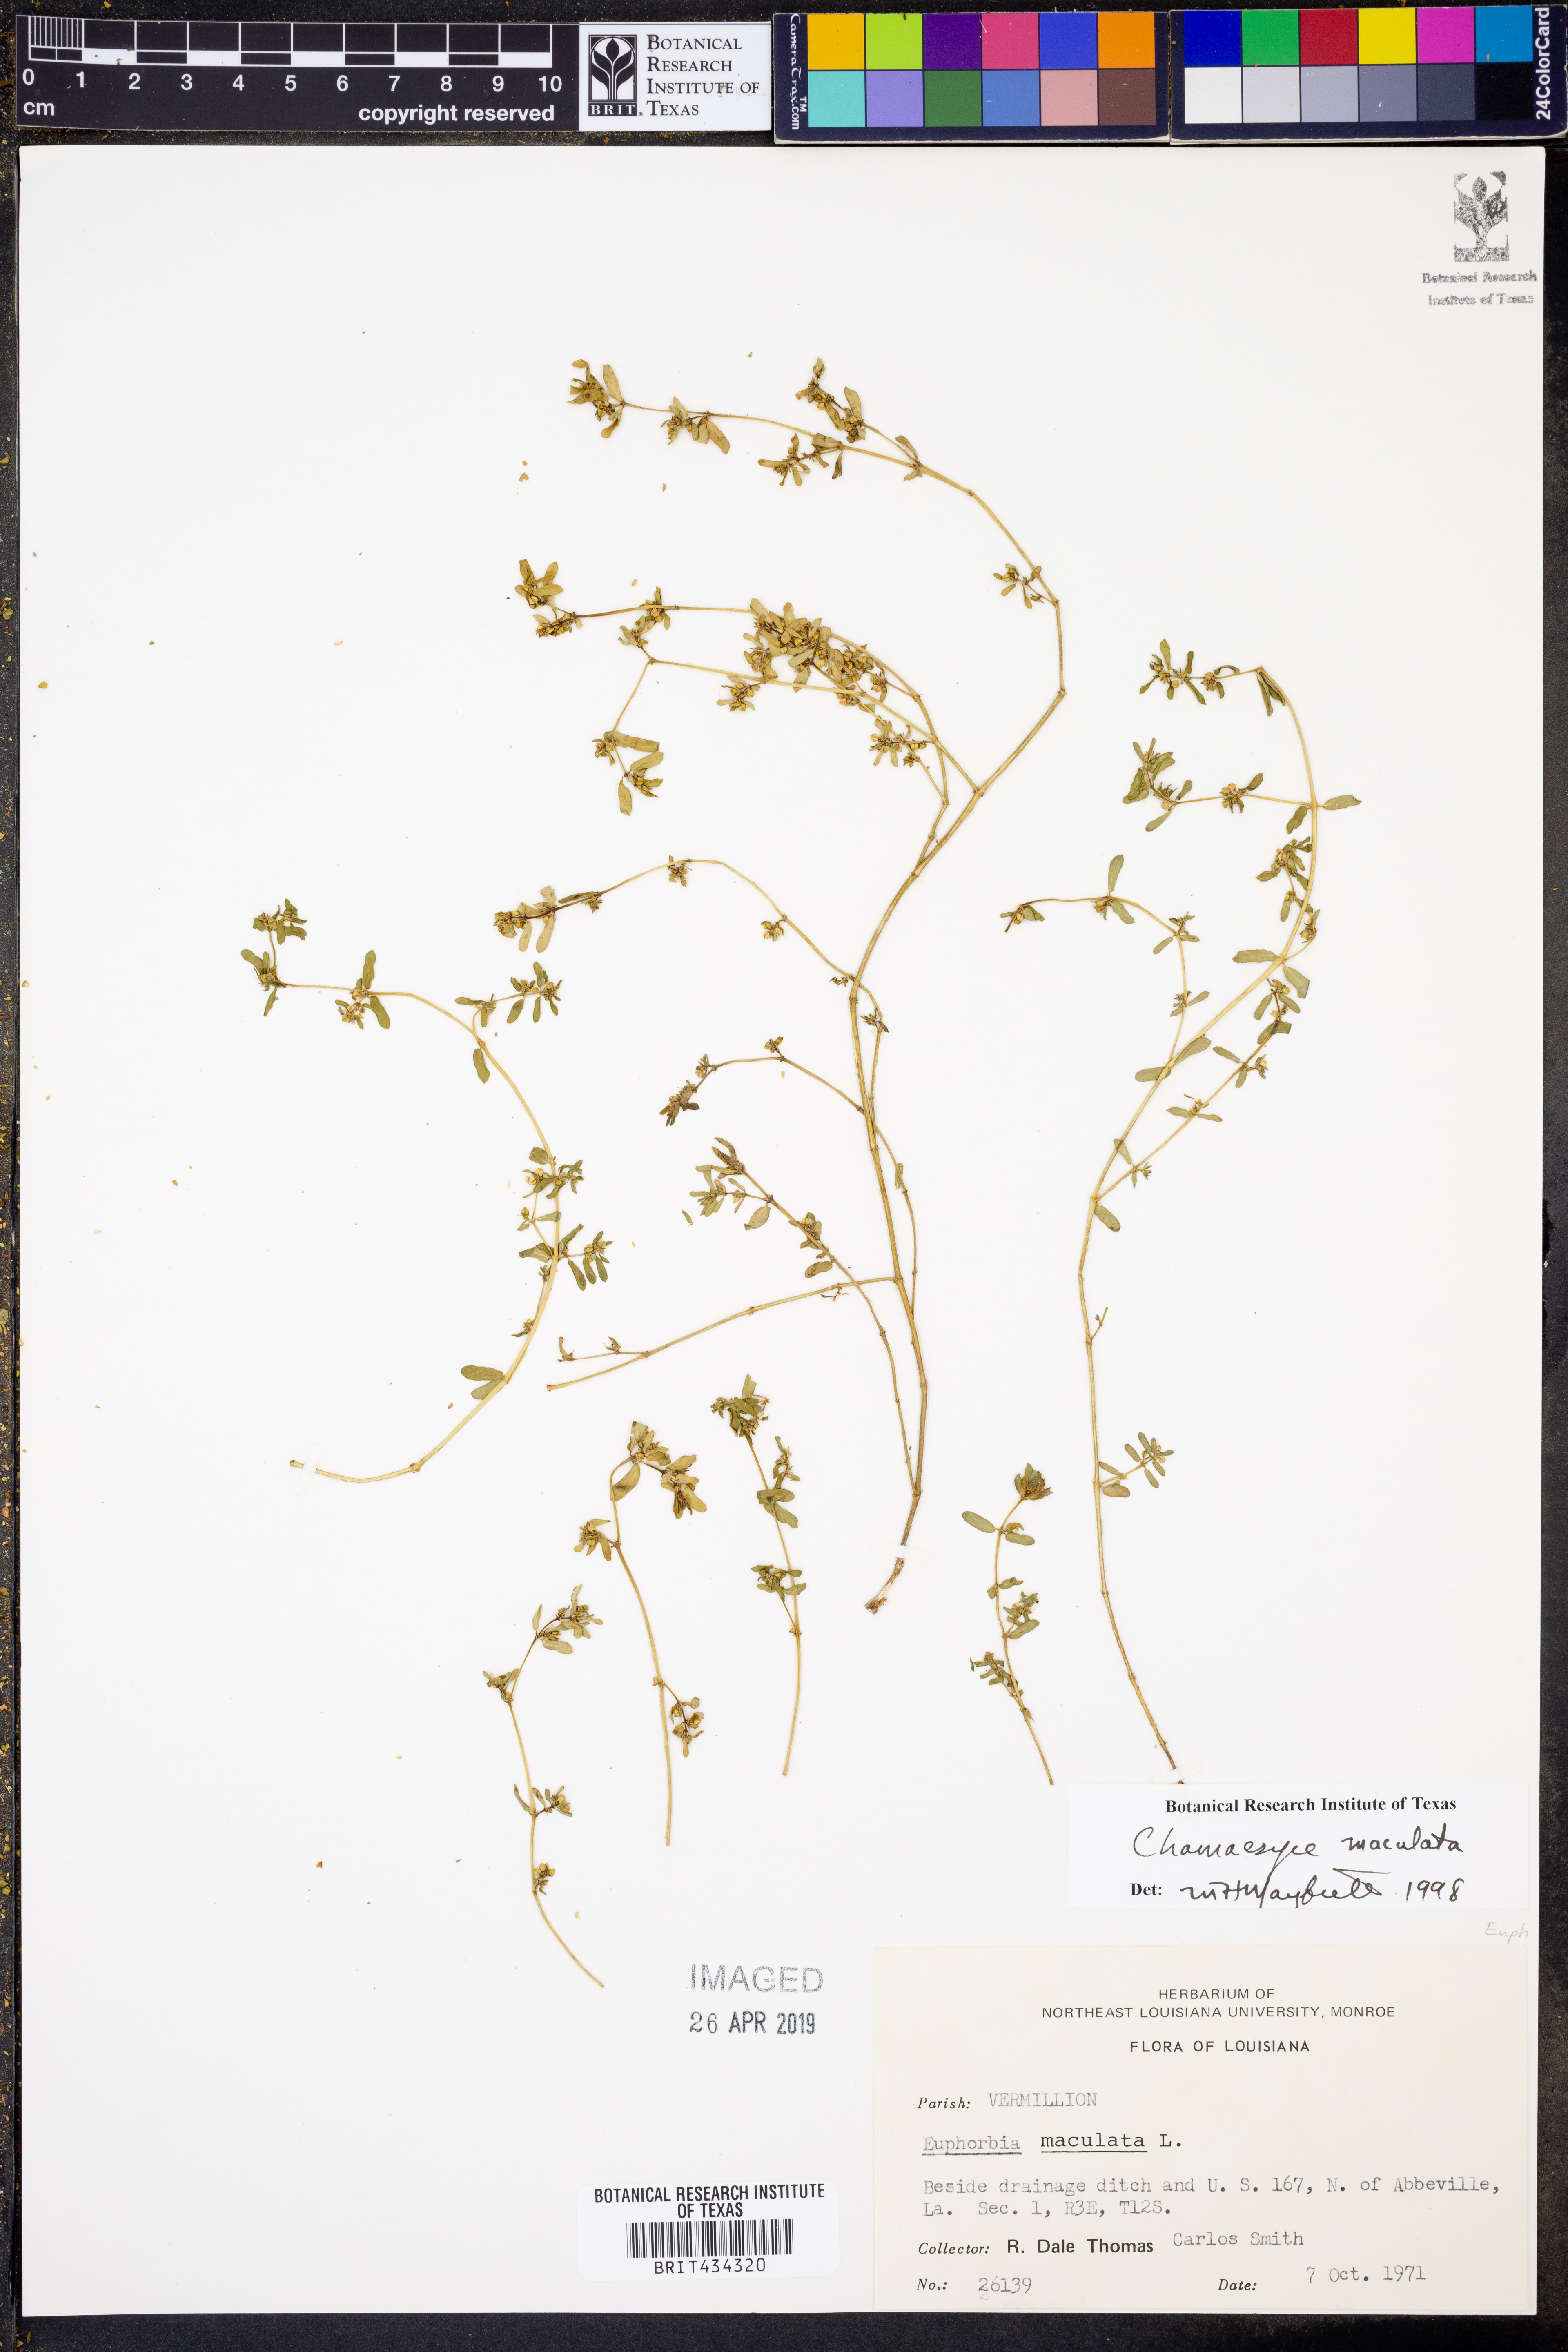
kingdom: Plantae
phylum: Tracheophyta
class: Magnoliopsida
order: Malpighiales
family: Euphorbiaceae
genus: Euphorbia
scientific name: Euphorbia maculata
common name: Spotted spurge
